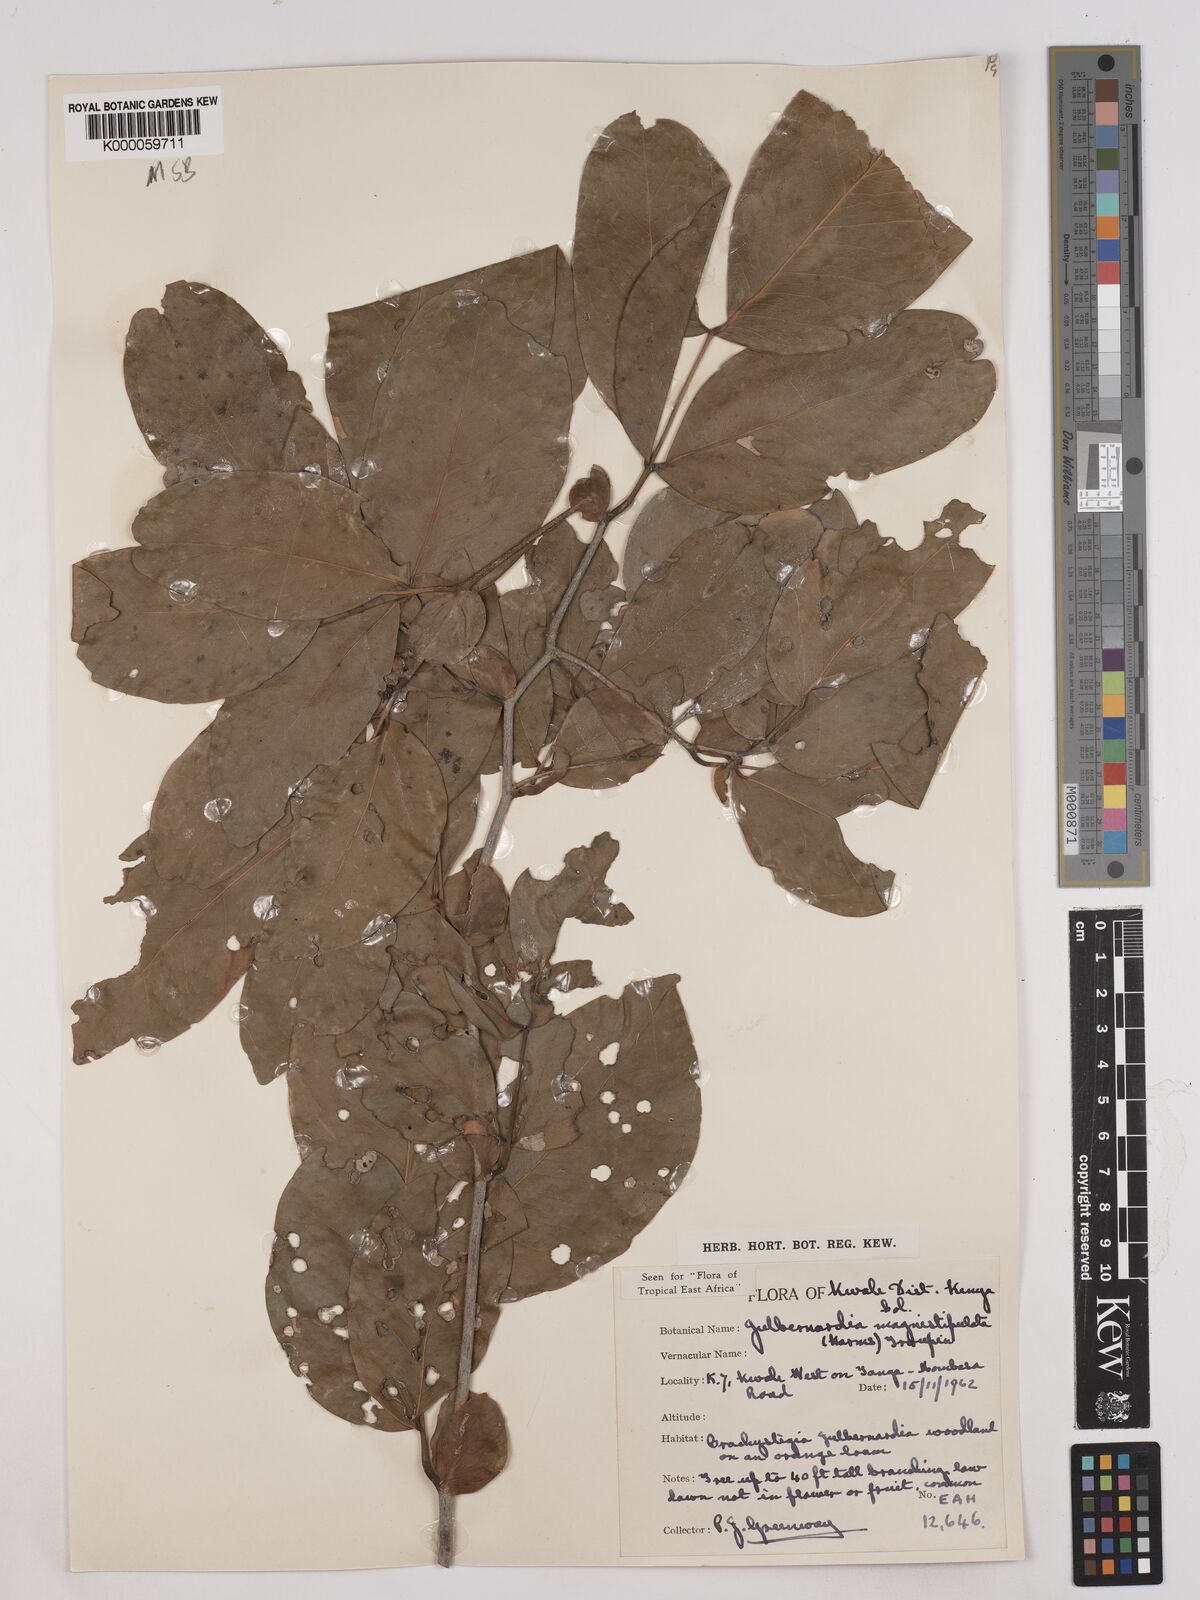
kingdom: Plantae
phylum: Tracheophyta
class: Magnoliopsida
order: Fabales
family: Fabaceae
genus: Julbernardia
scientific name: Julbernardia magnistipulata
